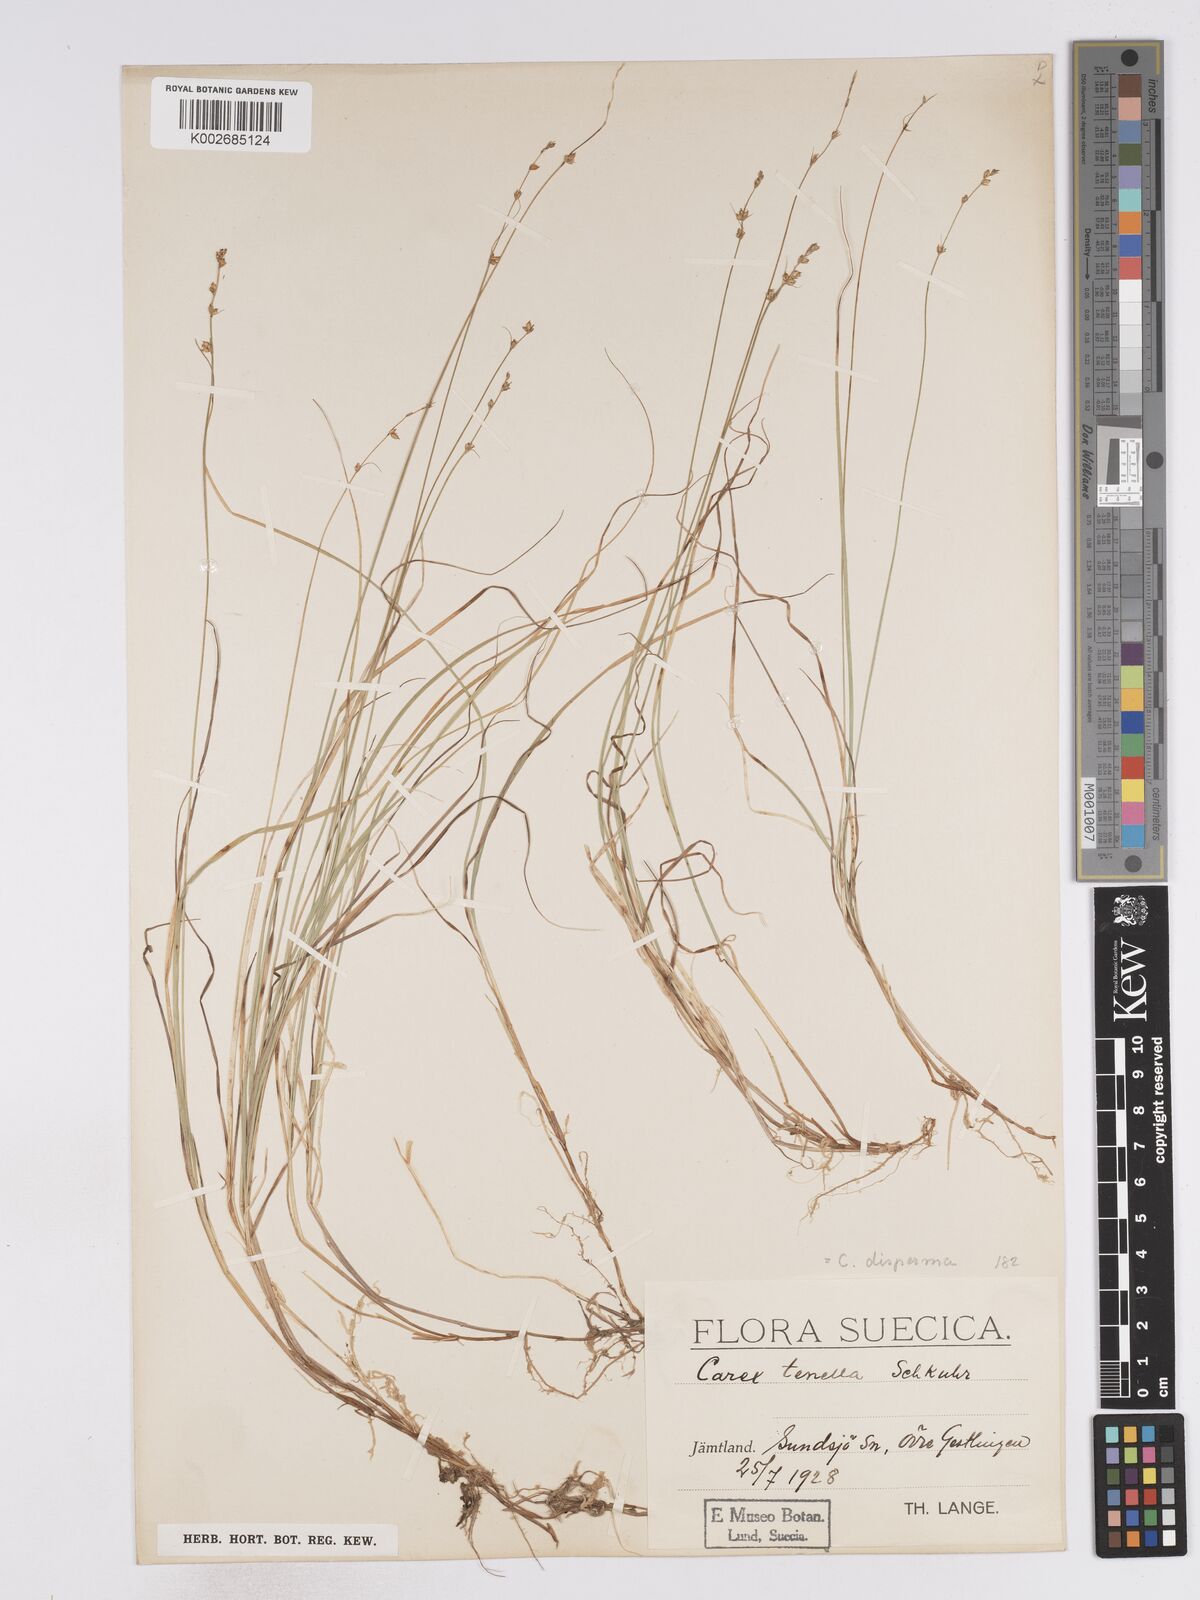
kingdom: Plantae
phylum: Tracheophyta
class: Liliopsida
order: Poales
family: Cyperaceae
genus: Carex
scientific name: Carex disperma
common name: Short-leaved sedge
